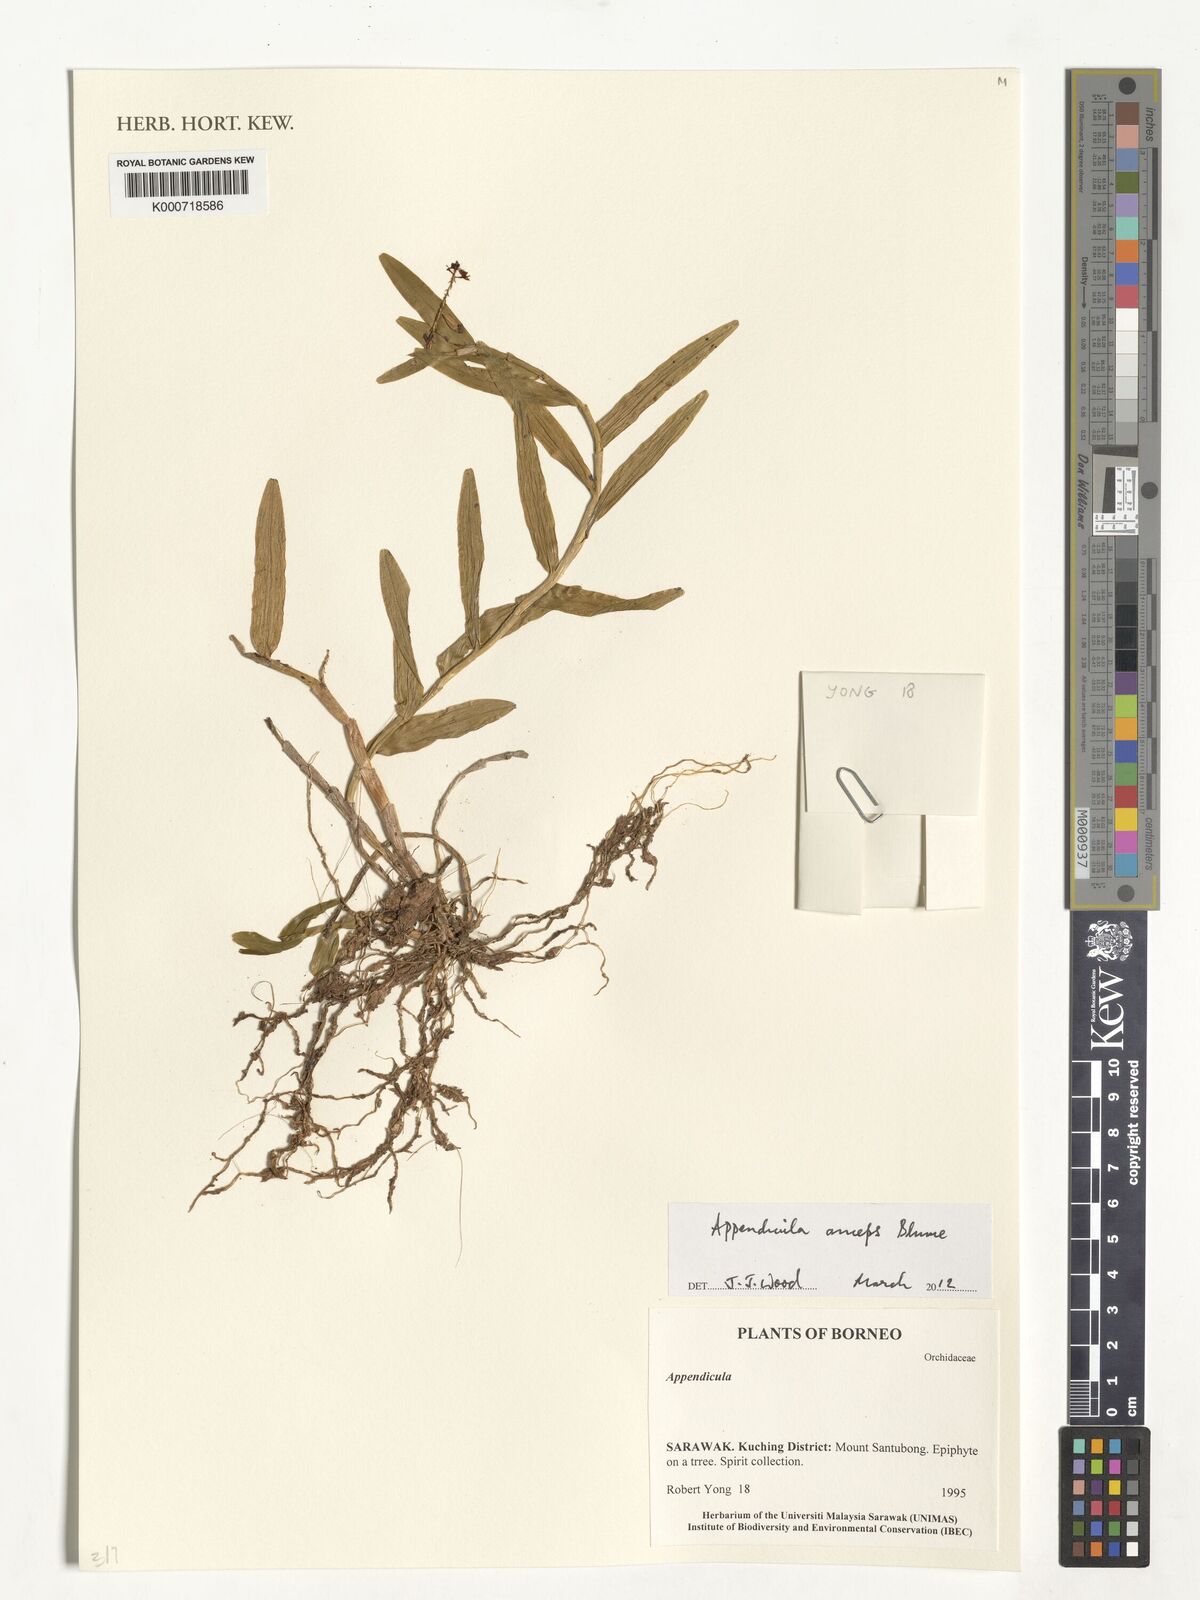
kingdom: Plantae
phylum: Tracheophyta
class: Liliopsida
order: Asparagales
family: Orchidaceae
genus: Appendicula
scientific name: Appendicula anceps
